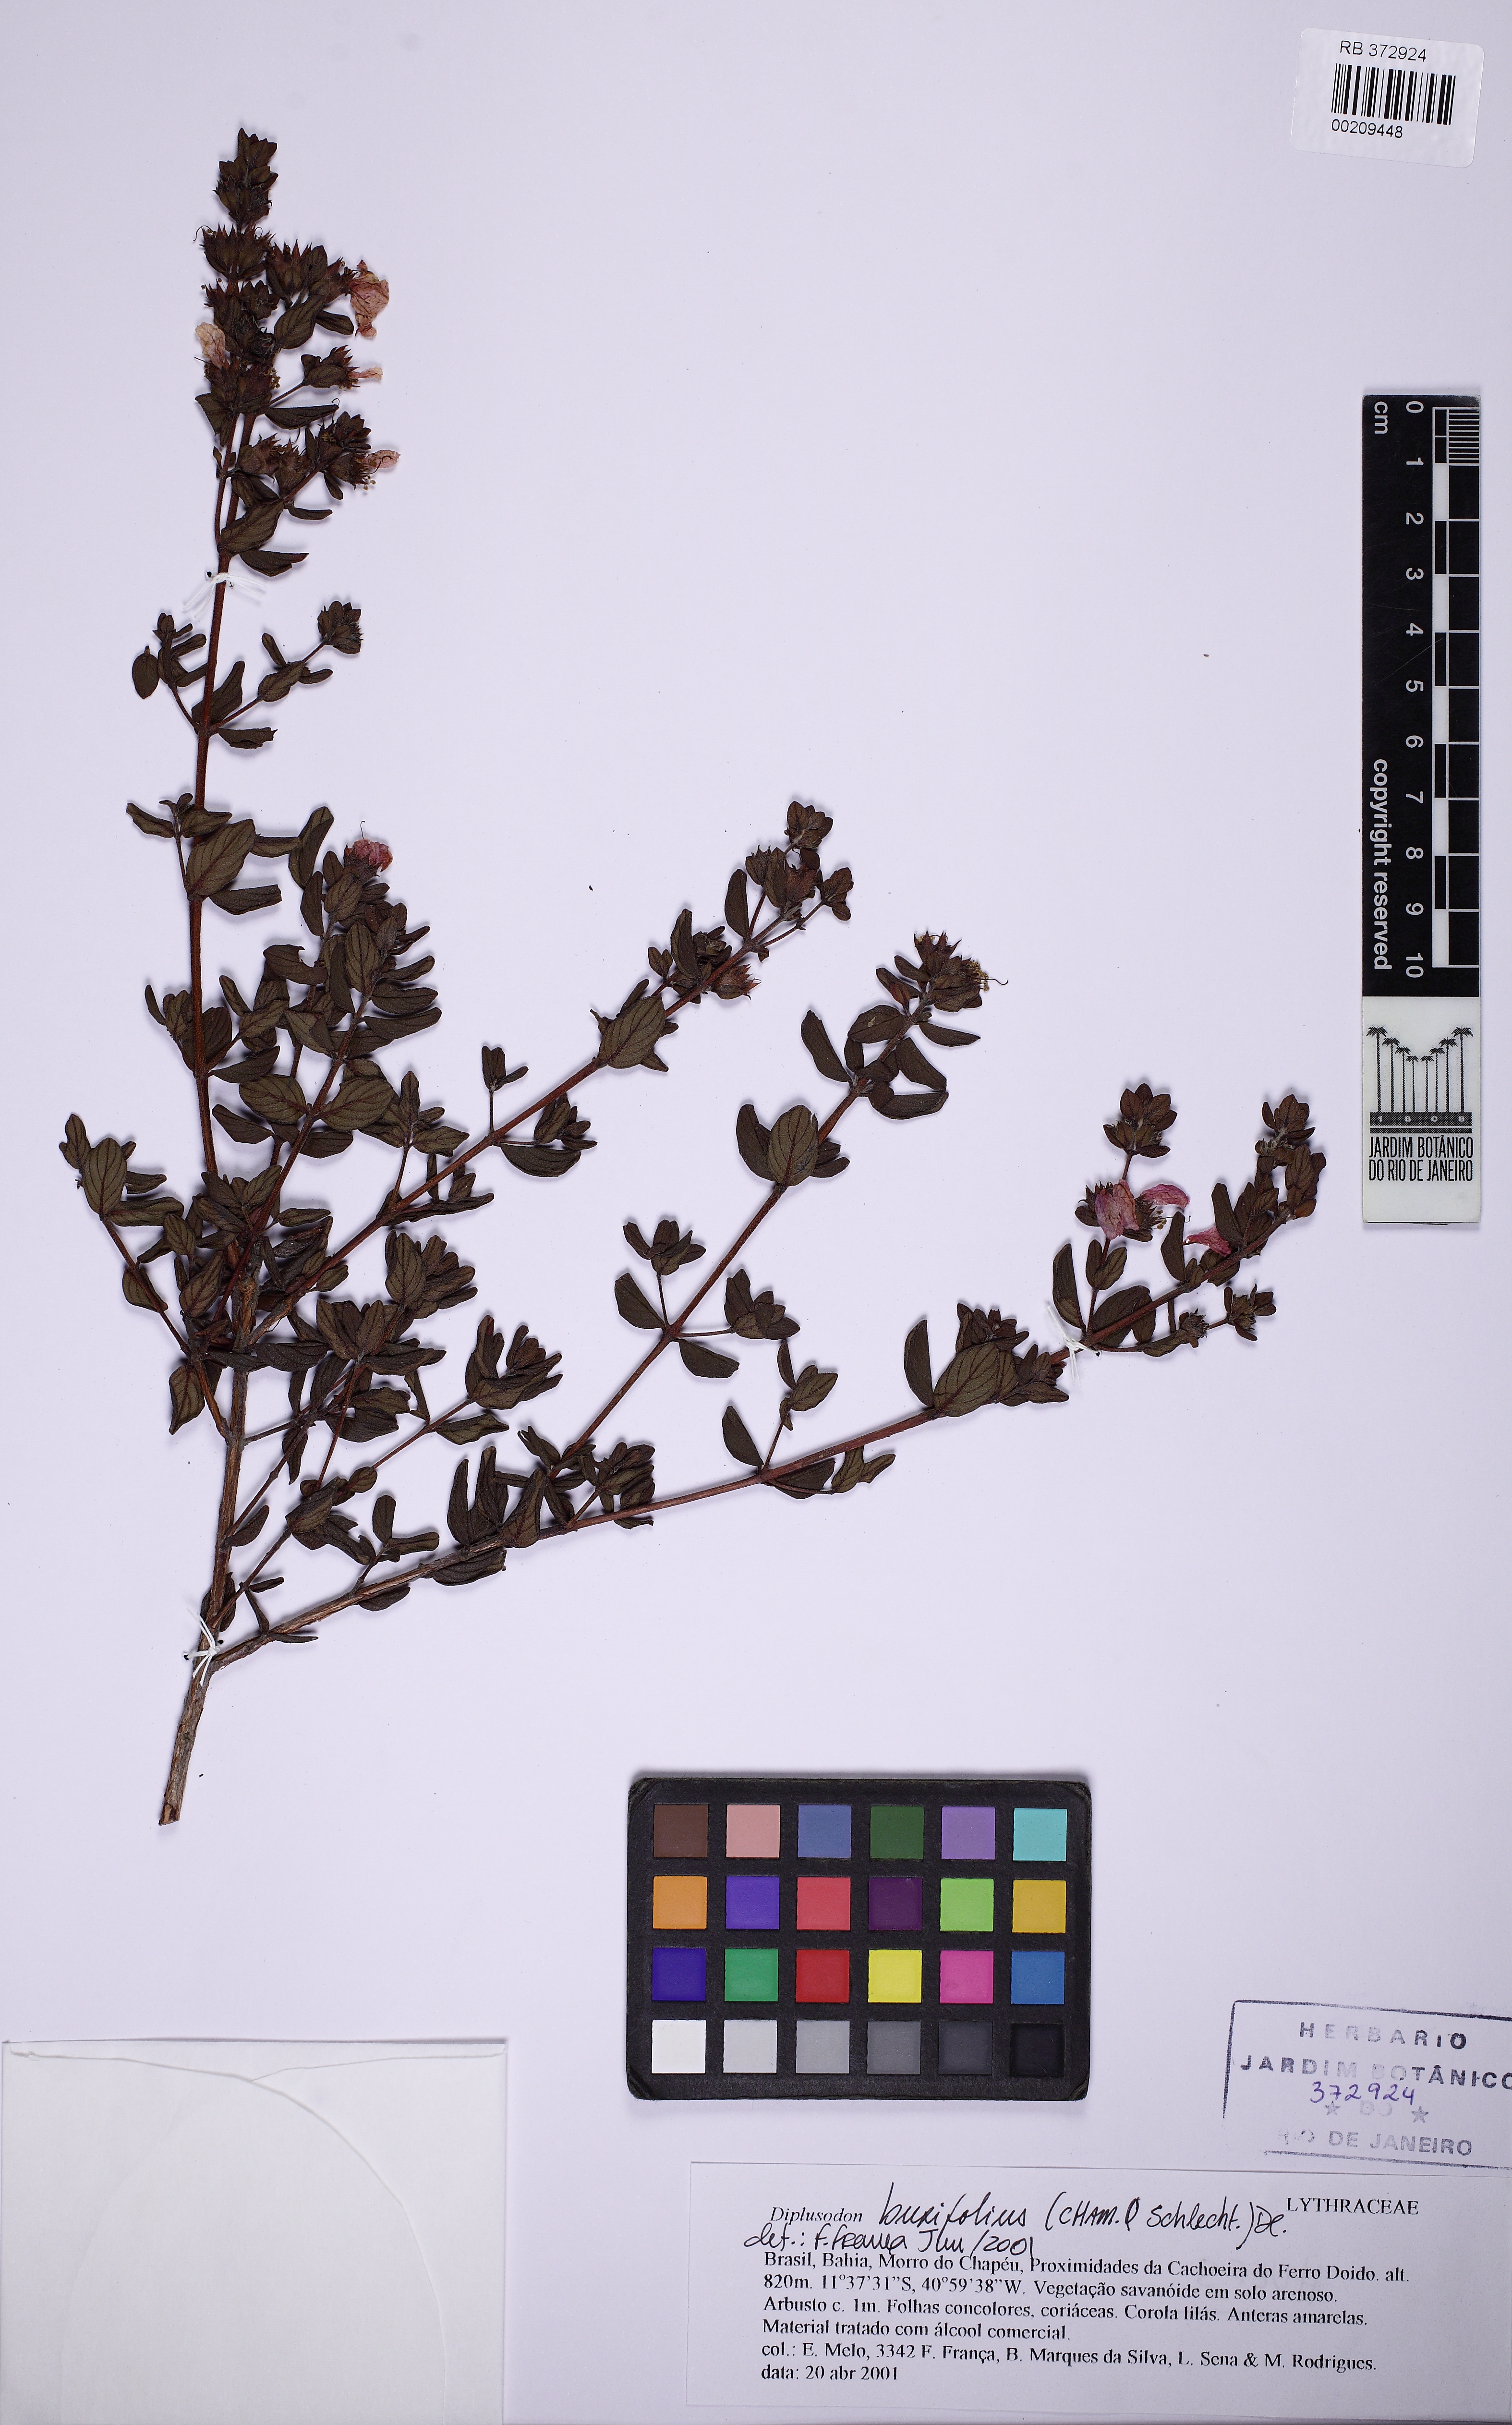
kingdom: Plantae
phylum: Tracheophyta
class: Magnoliopsida
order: Myrtales
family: Lythraceae
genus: Diplusodon
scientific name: Diplusodon buxifolius
